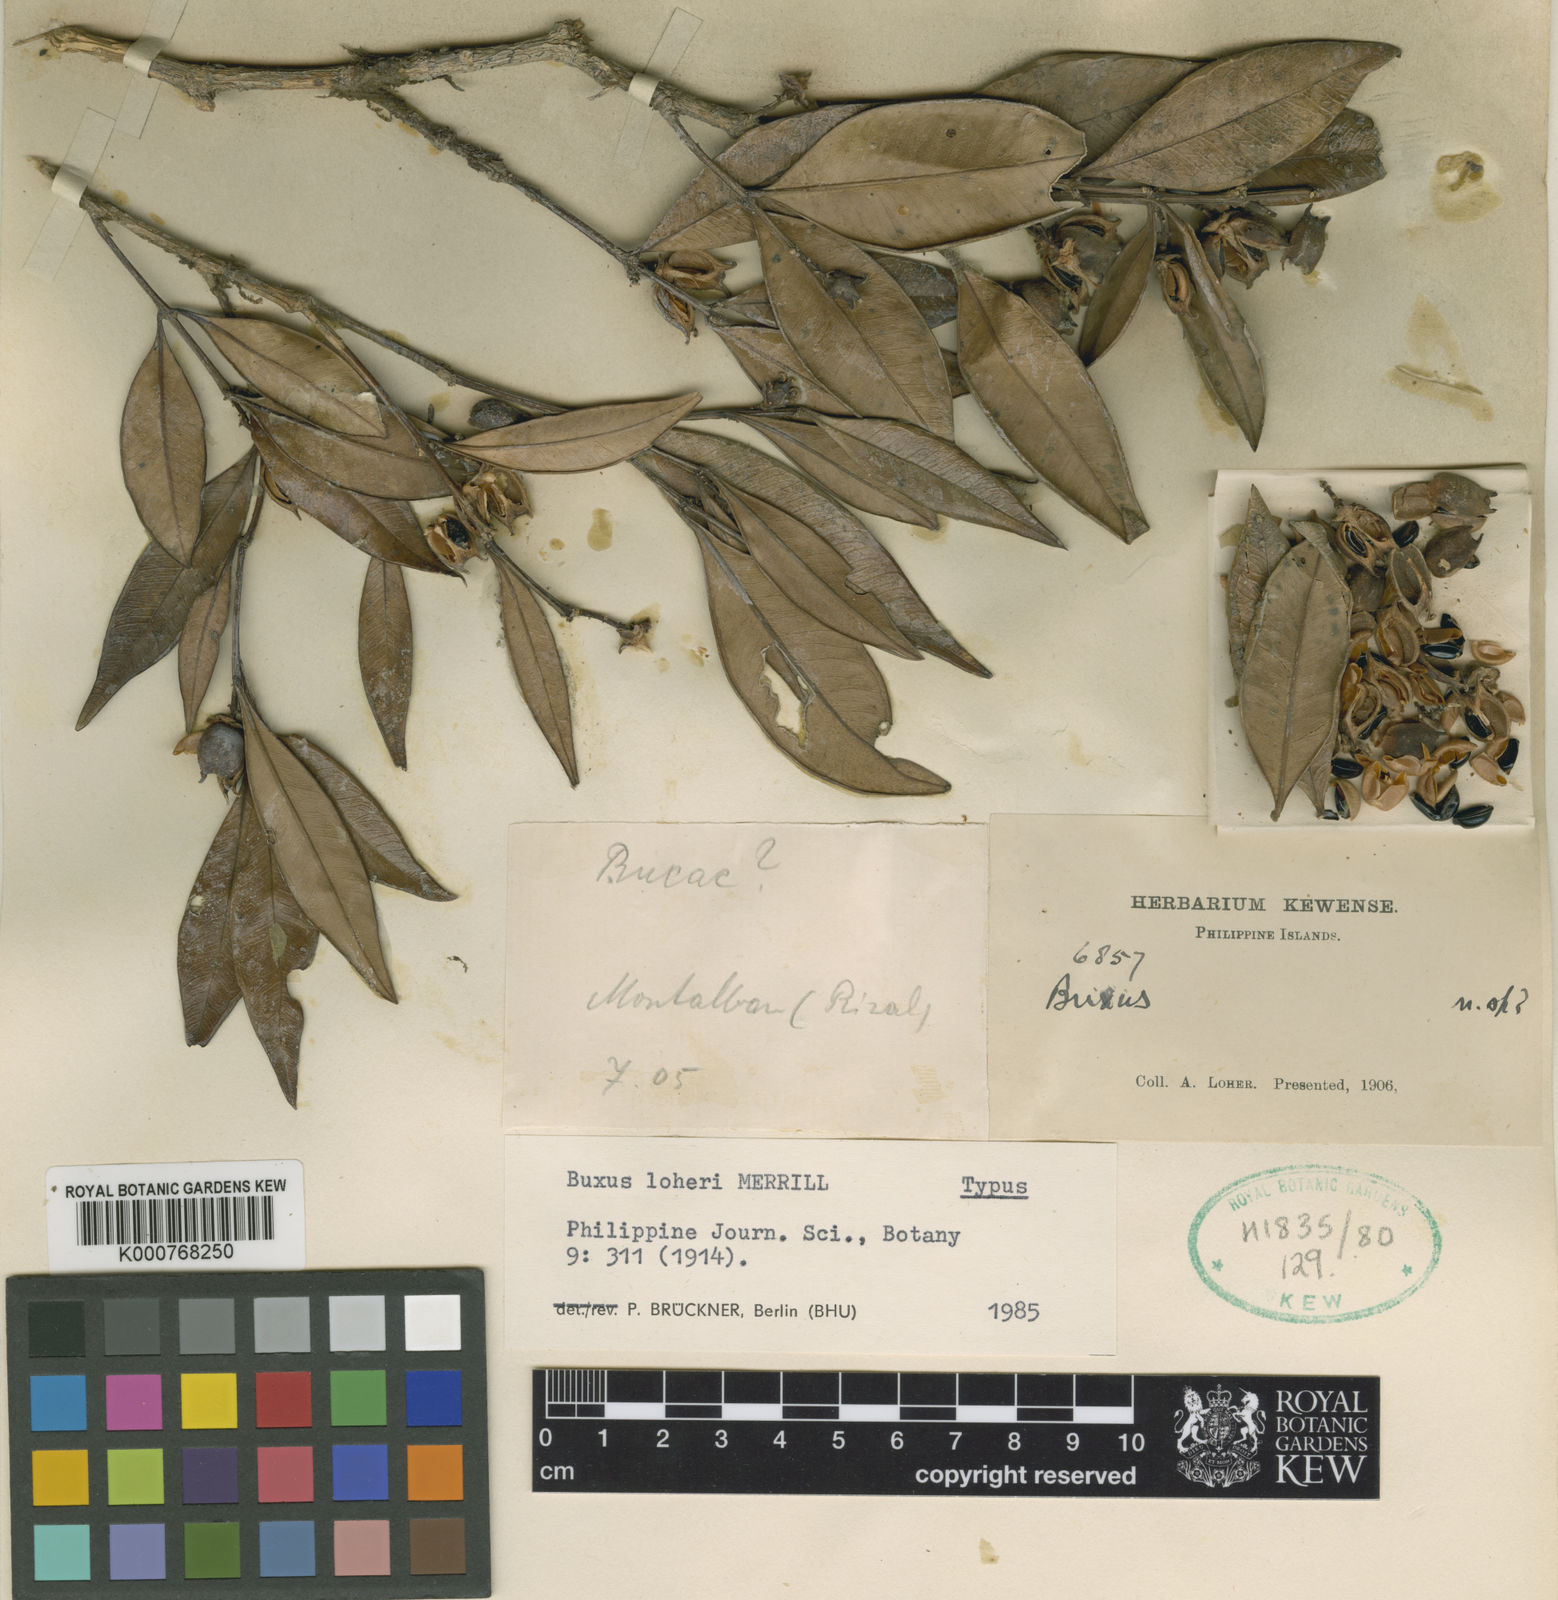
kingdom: Plantae
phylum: Tracheophyta
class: Magnoliopsida
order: Buxales
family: Buxaceae
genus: Buxus
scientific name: Buxus loheri
